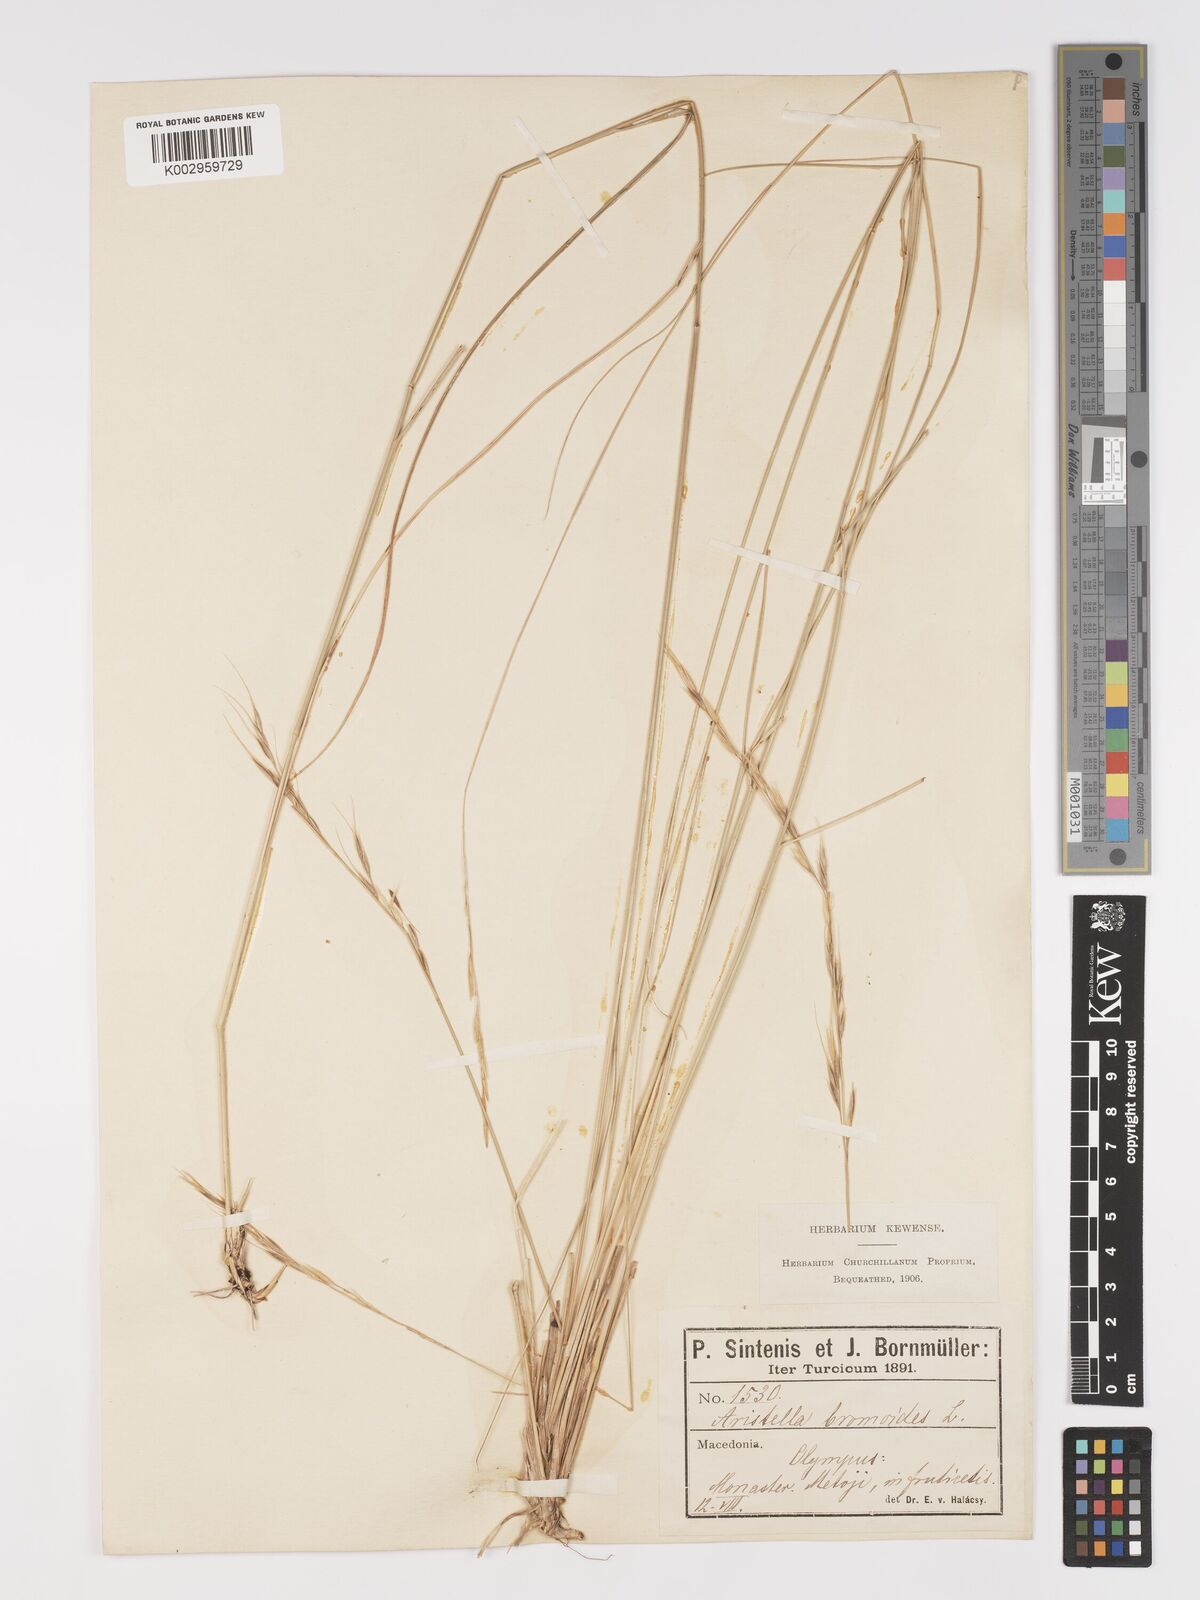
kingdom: Plantae
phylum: Tracheophyta
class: Liliopsida
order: Poales
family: Poaceae
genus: Achnatherum
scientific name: Achnatherum bromoides
